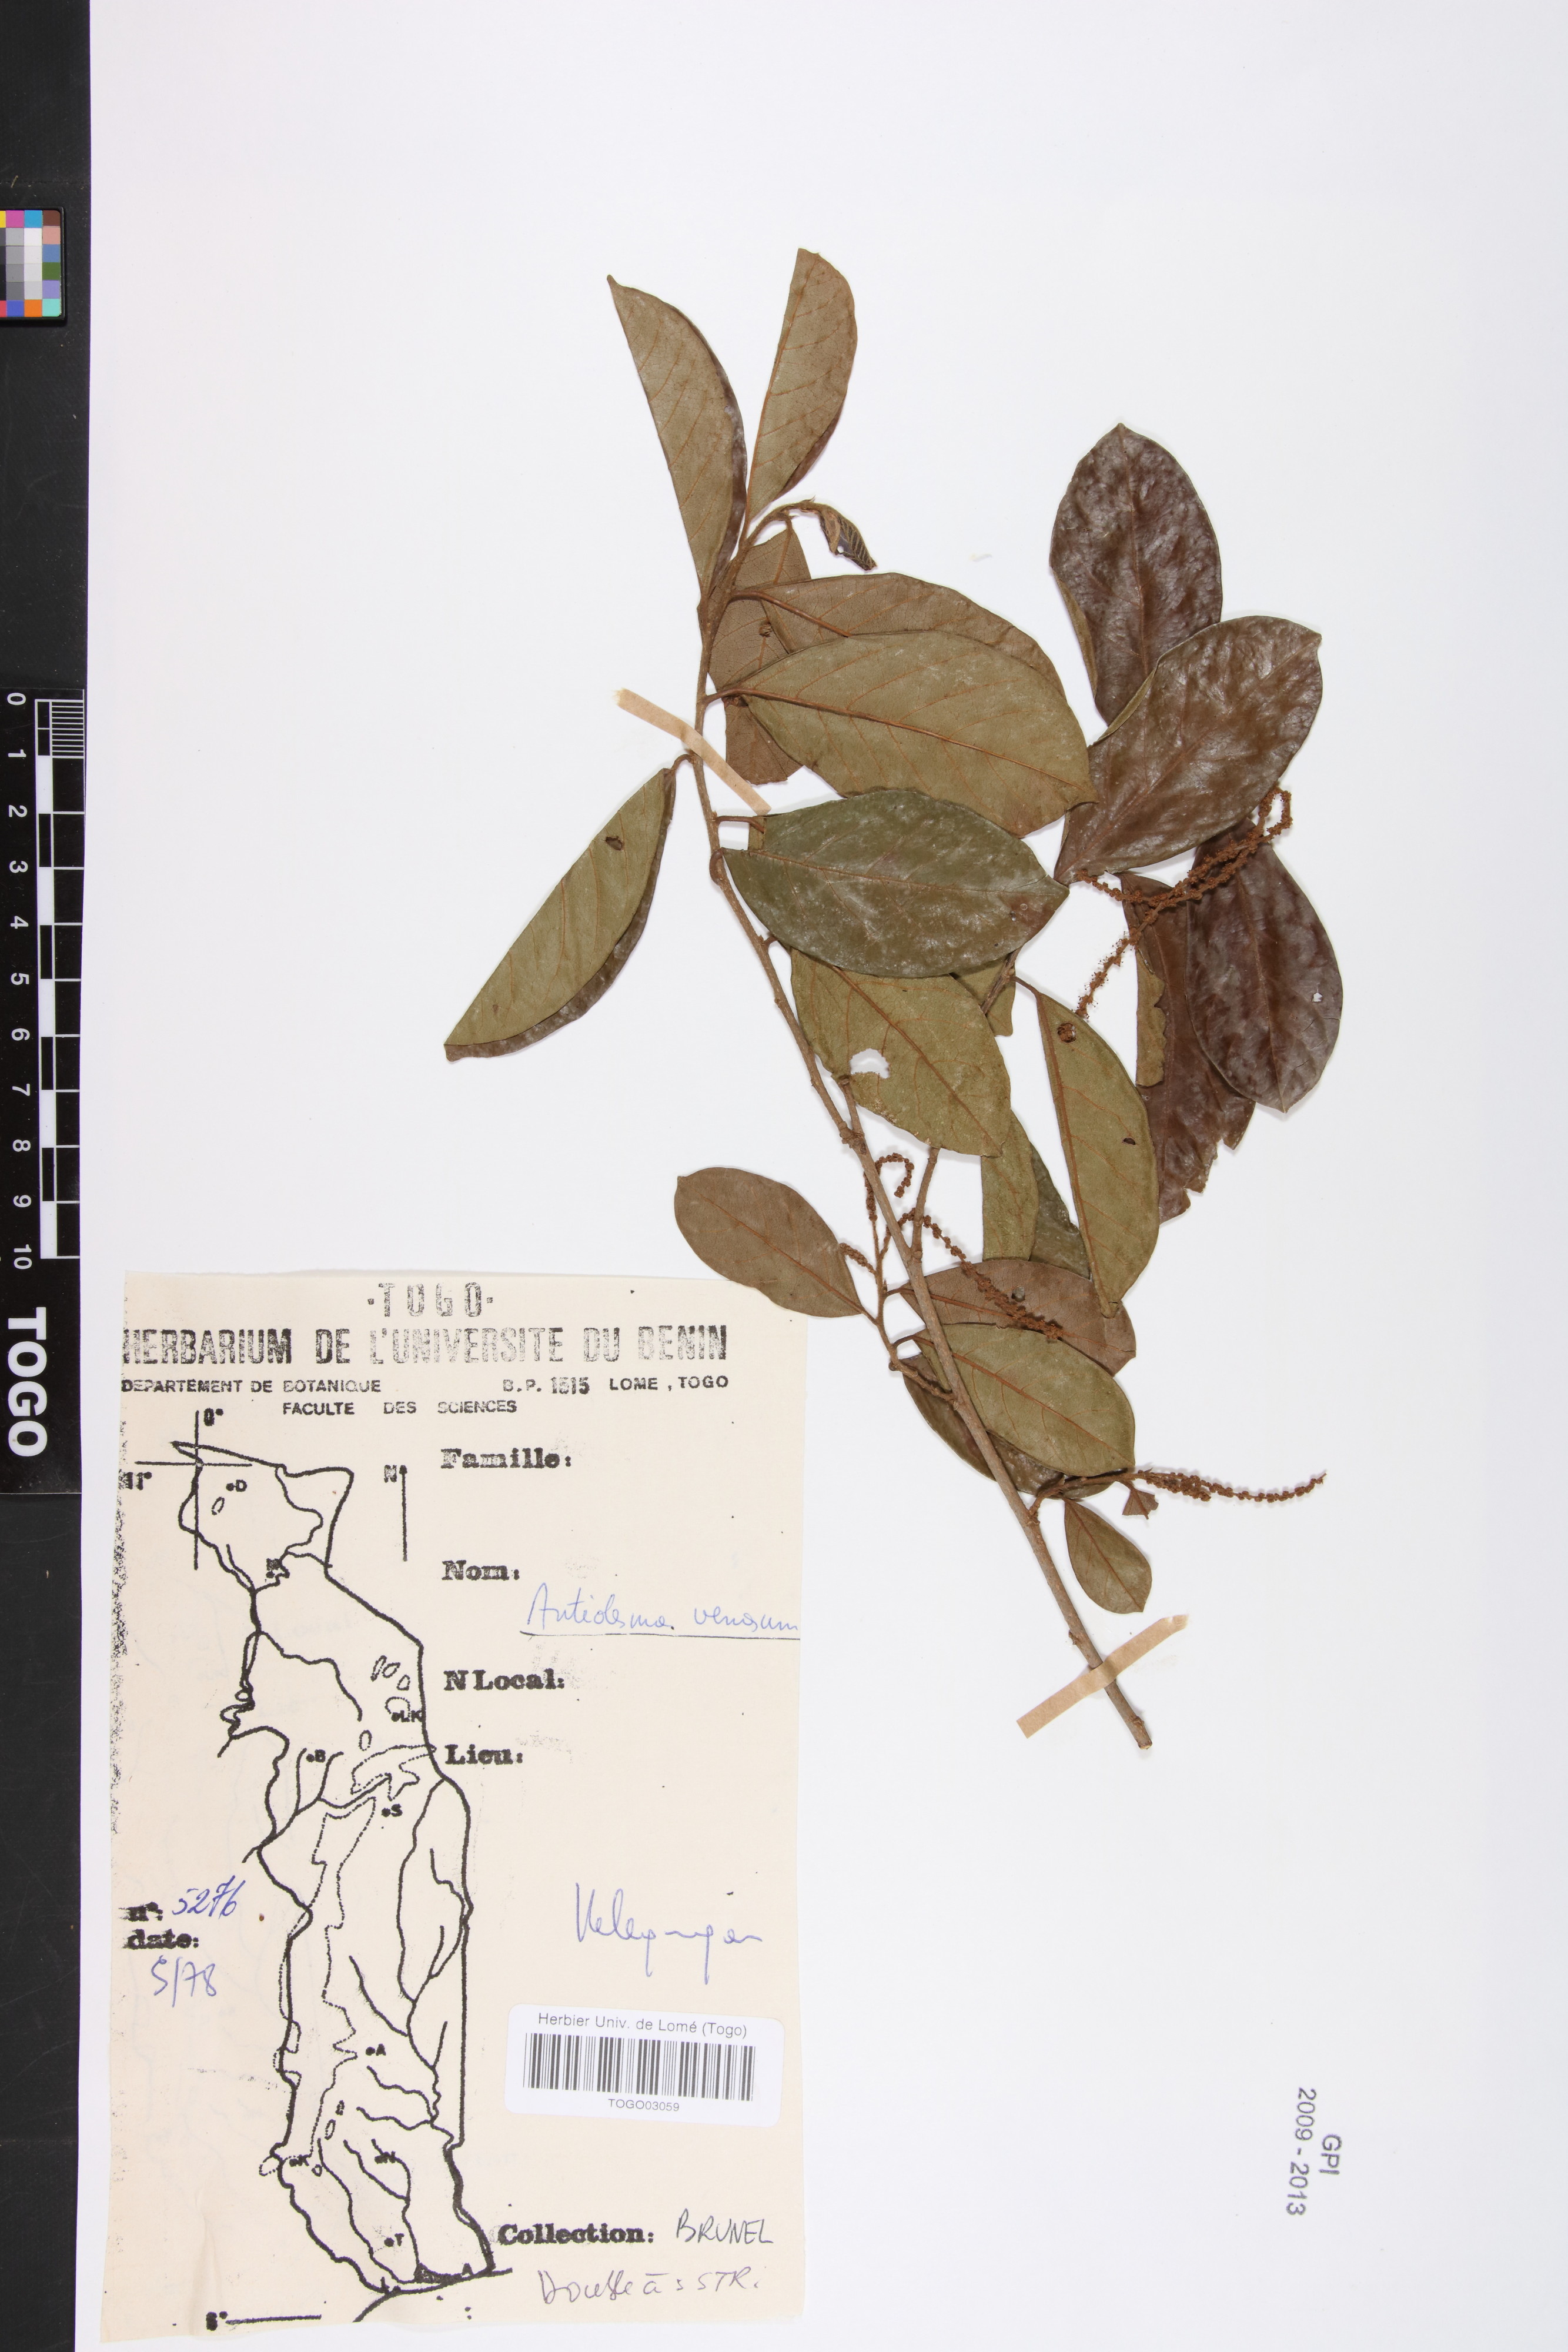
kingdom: Plantae
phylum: Tracheophyta
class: Magnoliopsida
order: Malpighiales
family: Phyllanthaceae
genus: Antidesma
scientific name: Antidesma venosum
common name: Tassel-berry
